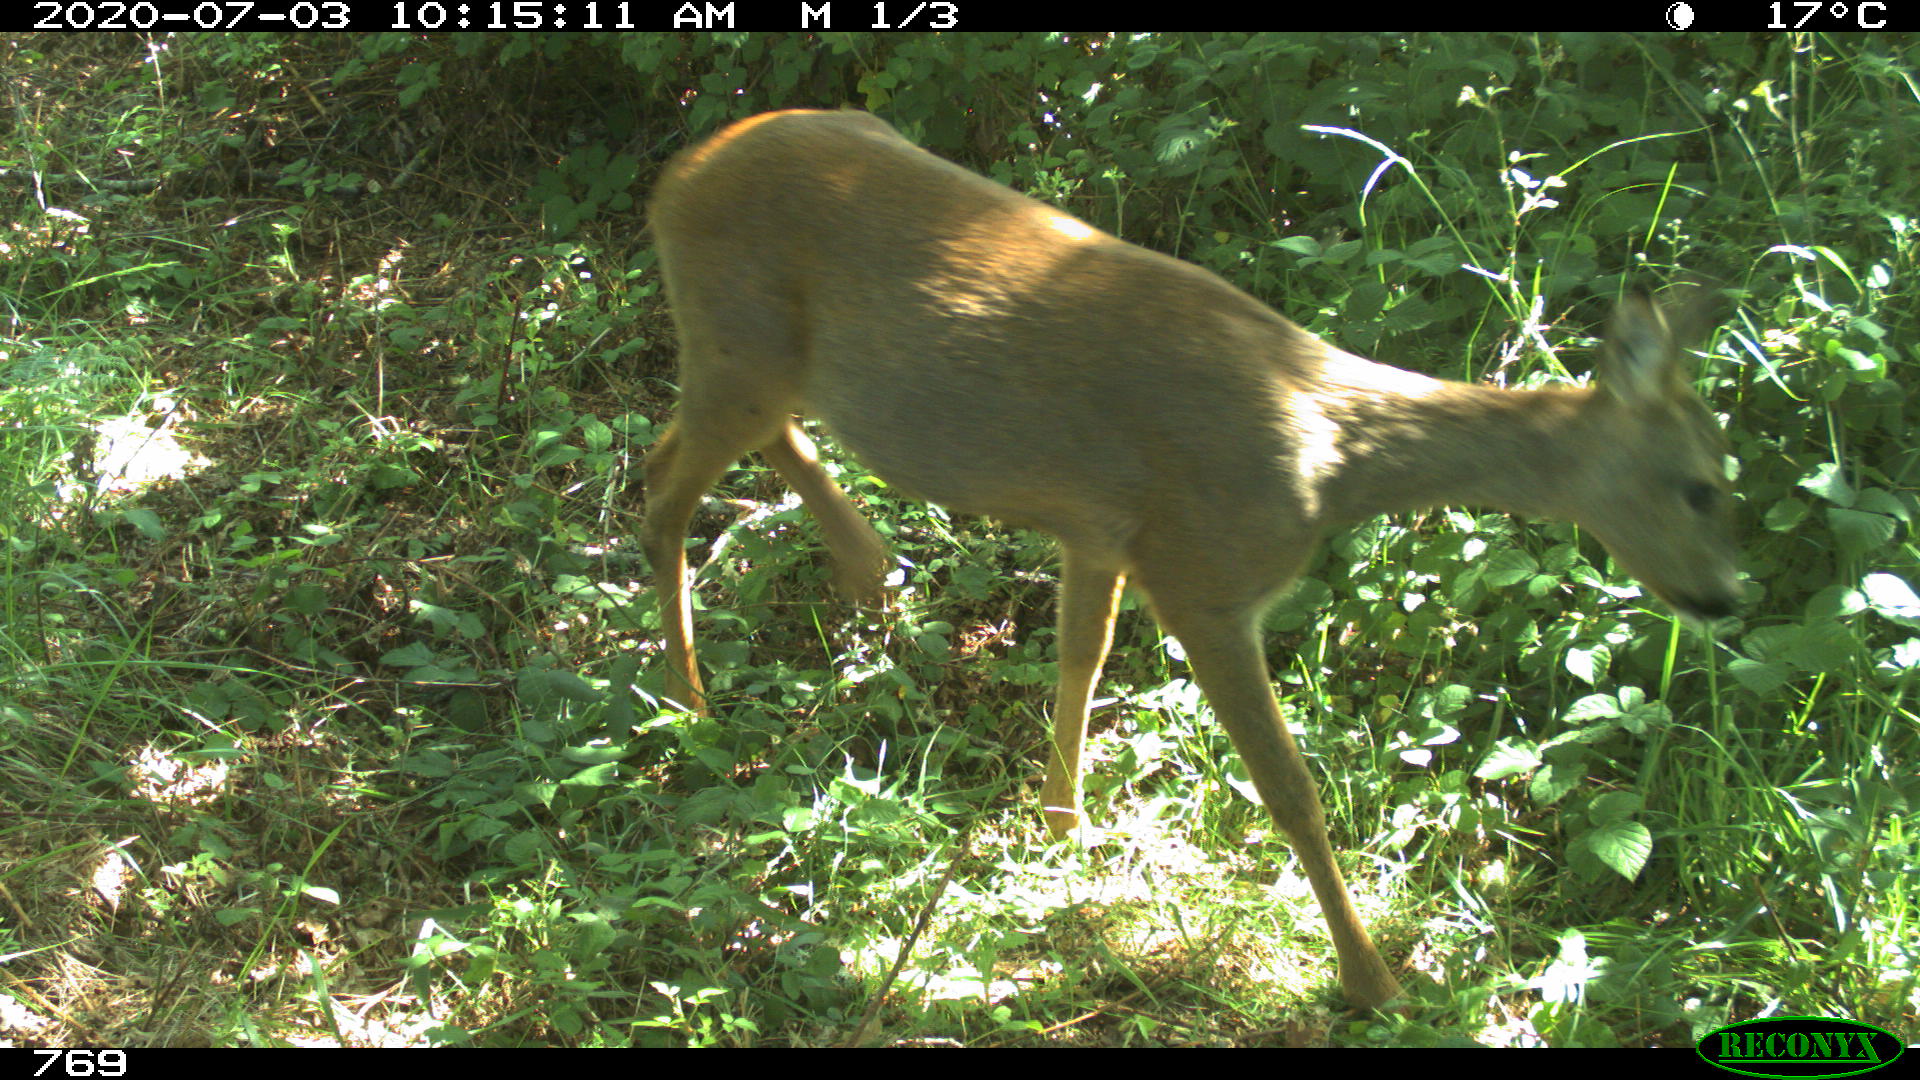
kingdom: Animalia
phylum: Chordata
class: Mammalia
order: Artiodactyla
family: Cervidae
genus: Capreolus
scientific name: Capreolus capreolus
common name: Western roe deer
